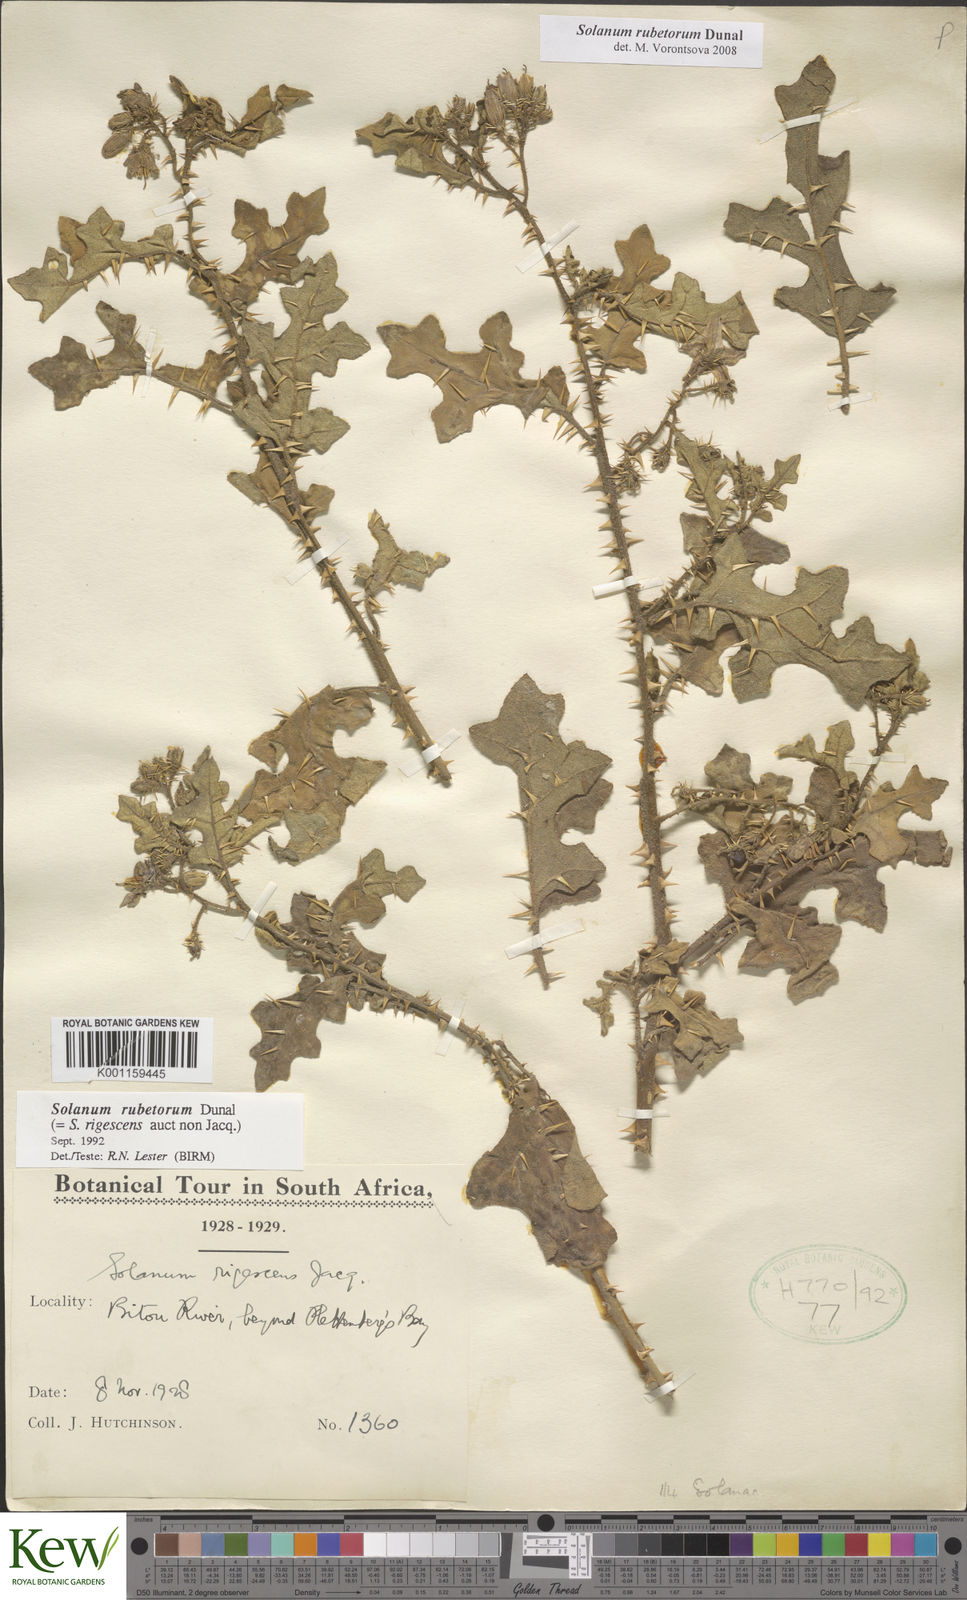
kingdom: Plantae
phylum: Tracheophyta
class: Magnoliopsida
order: Solanales
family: Solanaceae
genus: Solanum
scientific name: Solanum rubetorum
